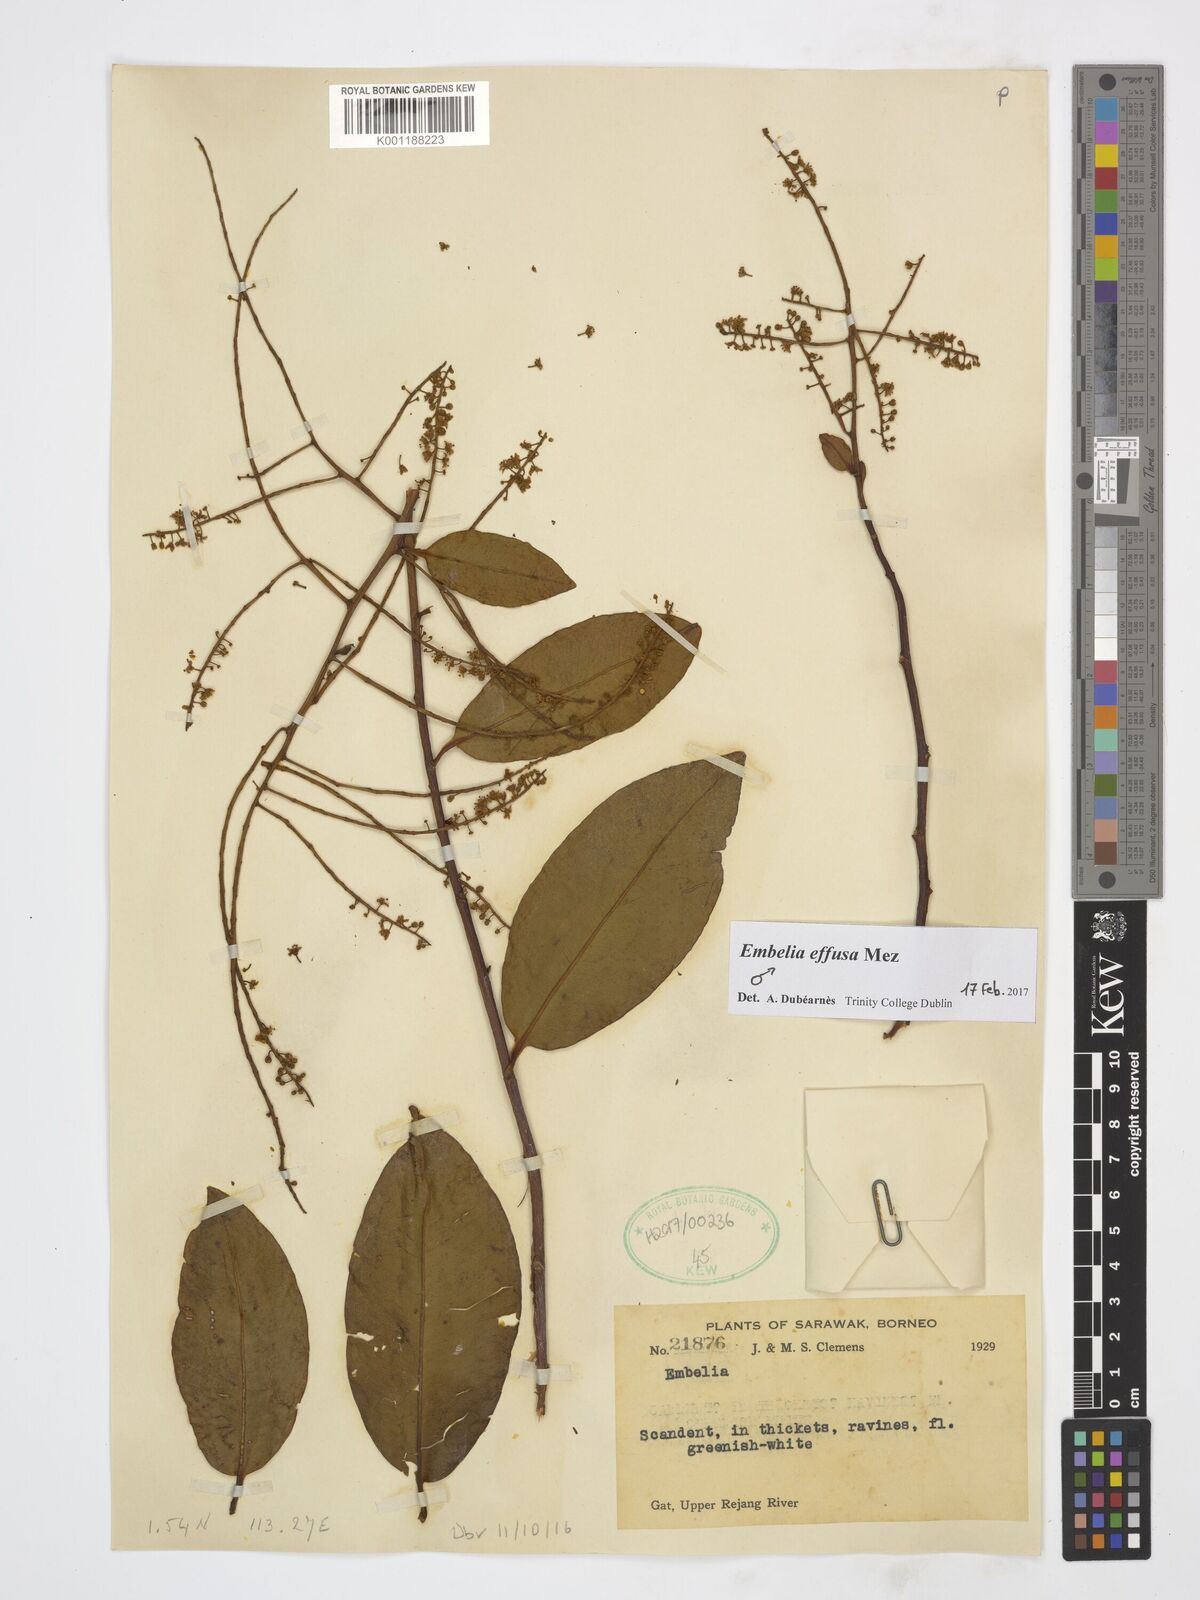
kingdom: Plantae
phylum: Tracheophyta
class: Magnoliopsida
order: Ericales
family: Primulaceae
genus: Embelia
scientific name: Embelia effusa
